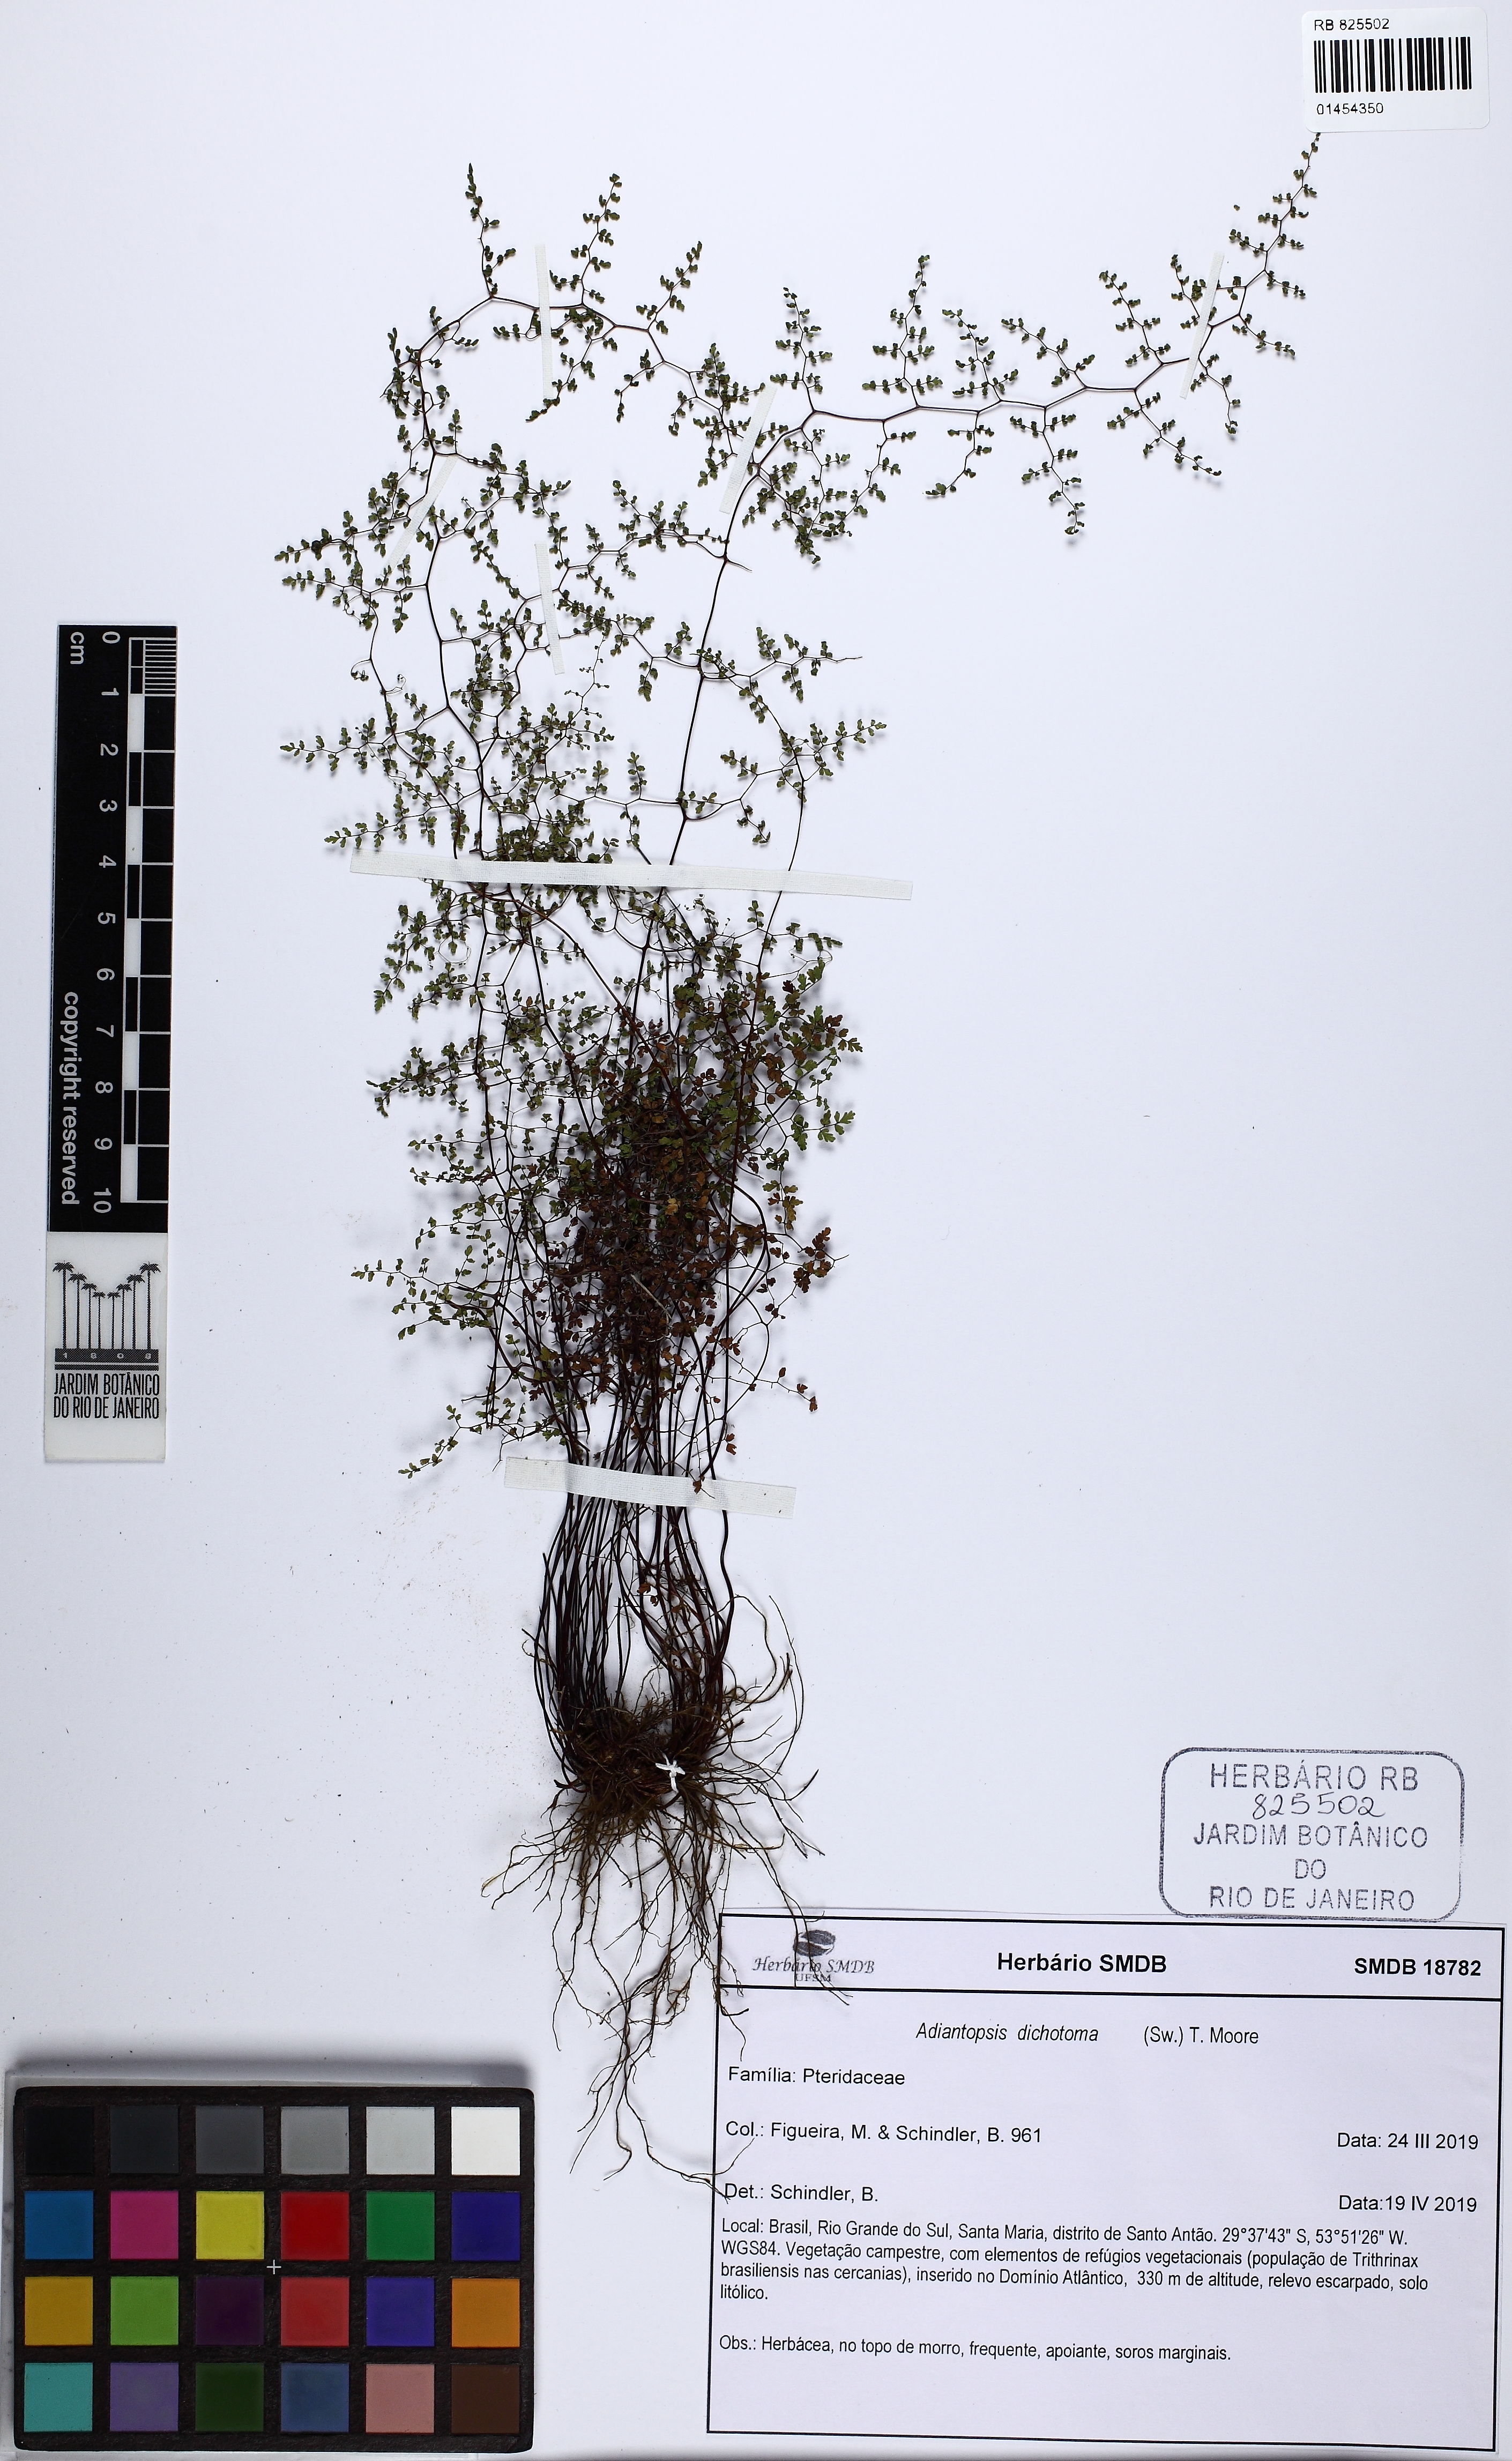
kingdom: Plantae
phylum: Tracheophyta
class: Polypodiopsida
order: Polypodiales
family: Pteridaceae
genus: Adiantopsis
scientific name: Adiantopsis dichotoma
